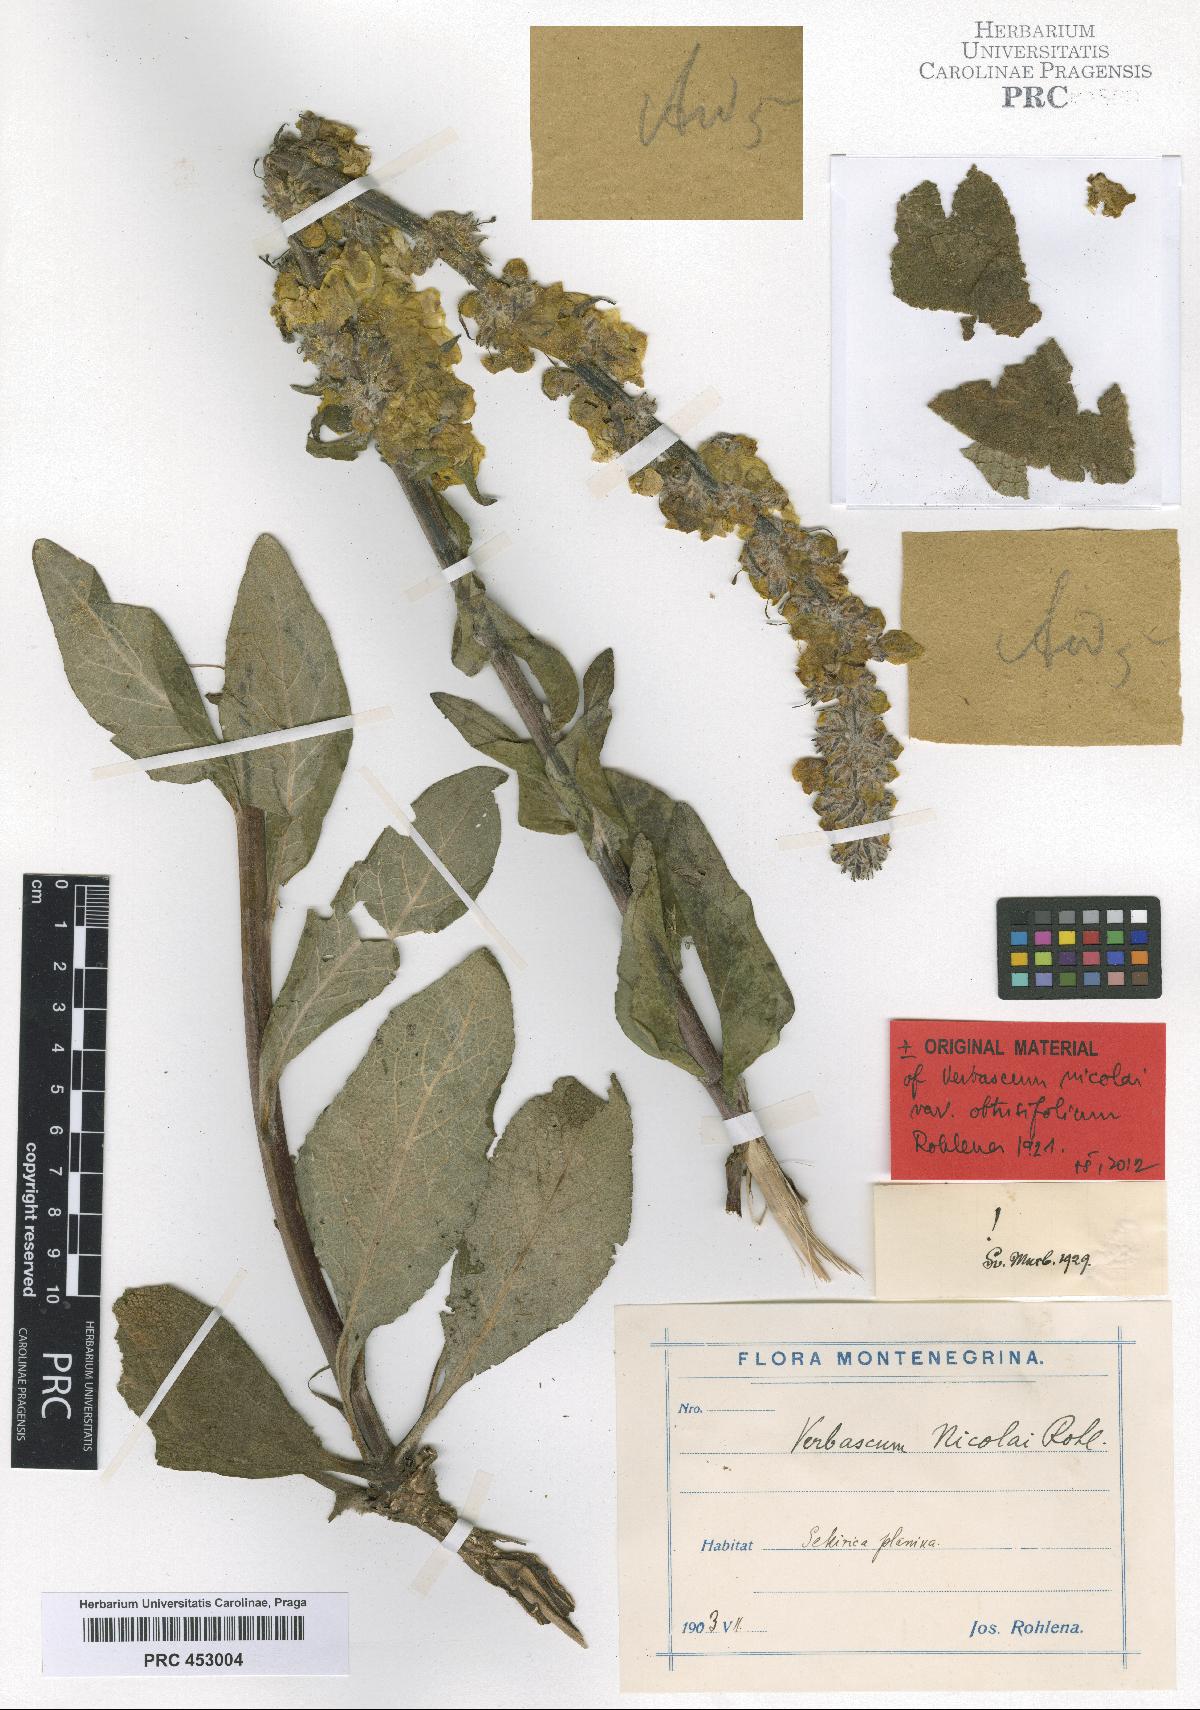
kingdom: Plantae
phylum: Tracheophyta
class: Magnoliopsida
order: Lamiales
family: Scrophulariaceae
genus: Verbascum
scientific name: Verbascum nicolai
